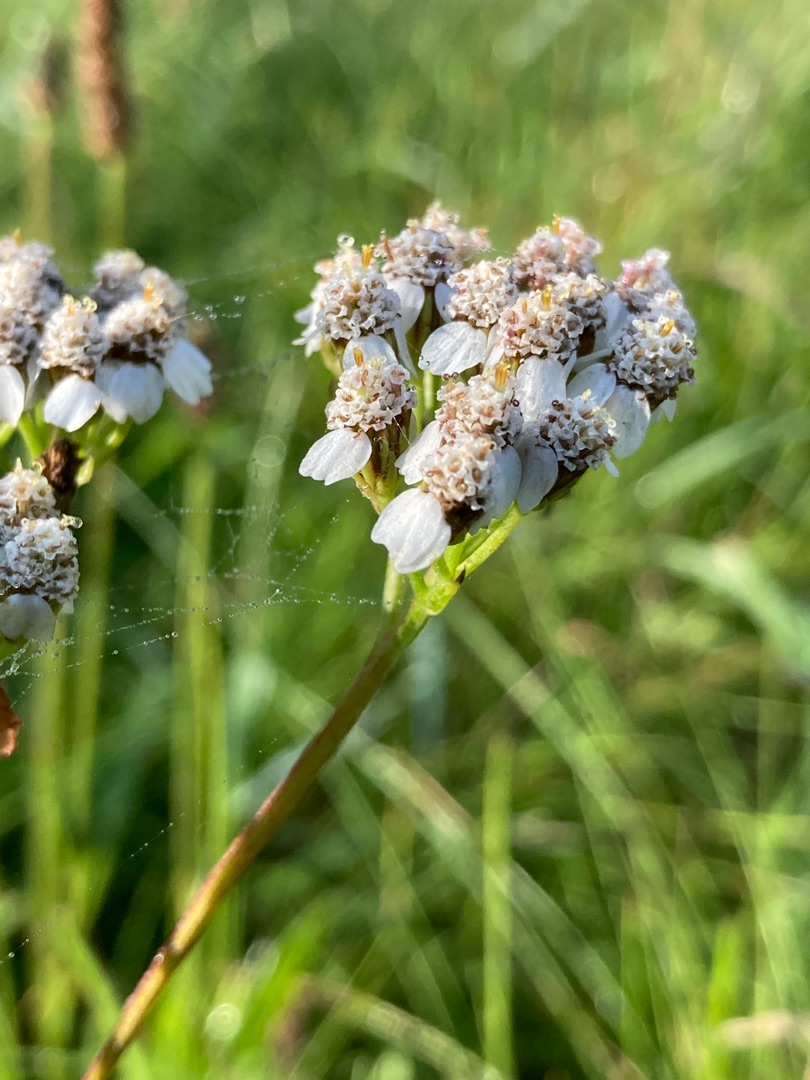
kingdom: Plantae
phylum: Tracheophyta
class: Magnoliopsida
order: Asterales
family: Asteraceae
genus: Achillea
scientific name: Achillea millefolium
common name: Almindelig røllike
